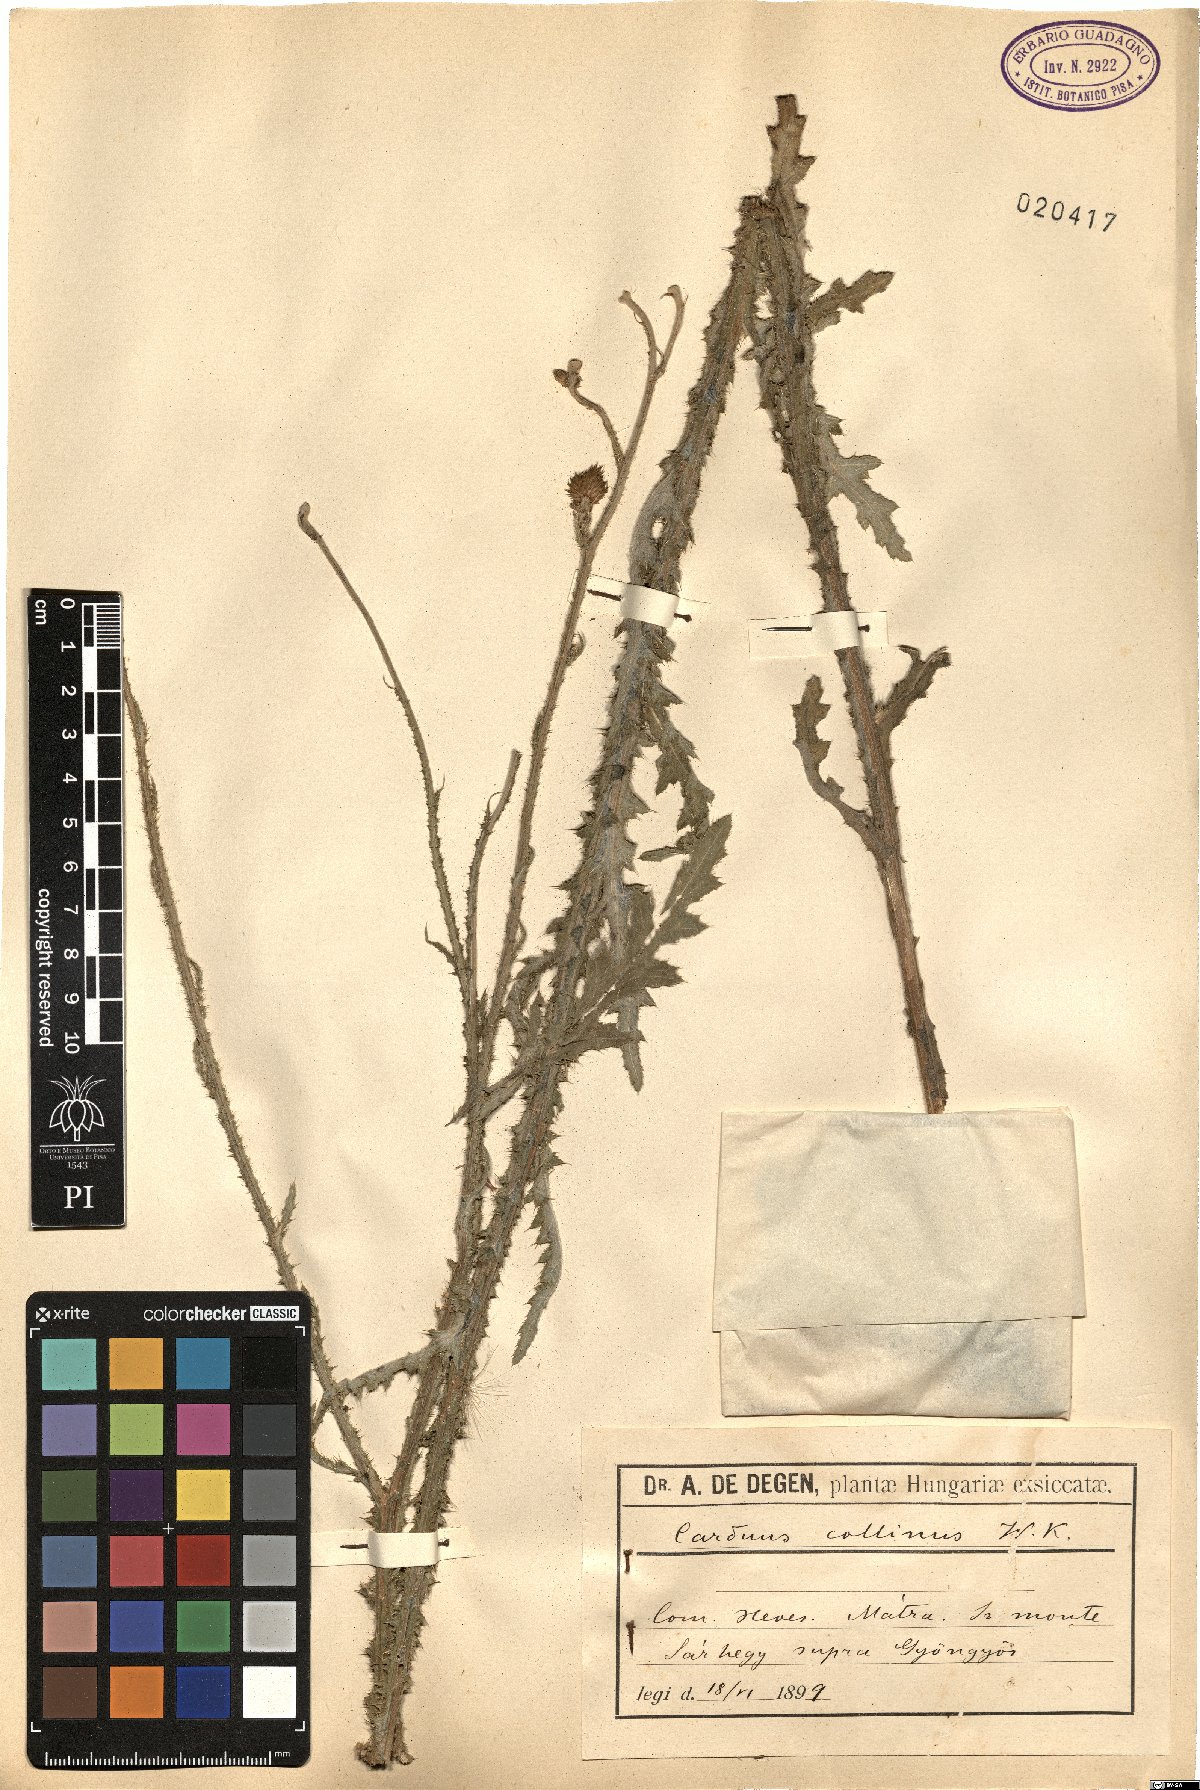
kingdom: Plantae
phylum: Tracheophyta
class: Magnoliopsida
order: Asterales
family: Asteraceae
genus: Carduus
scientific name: Carduus collinus
